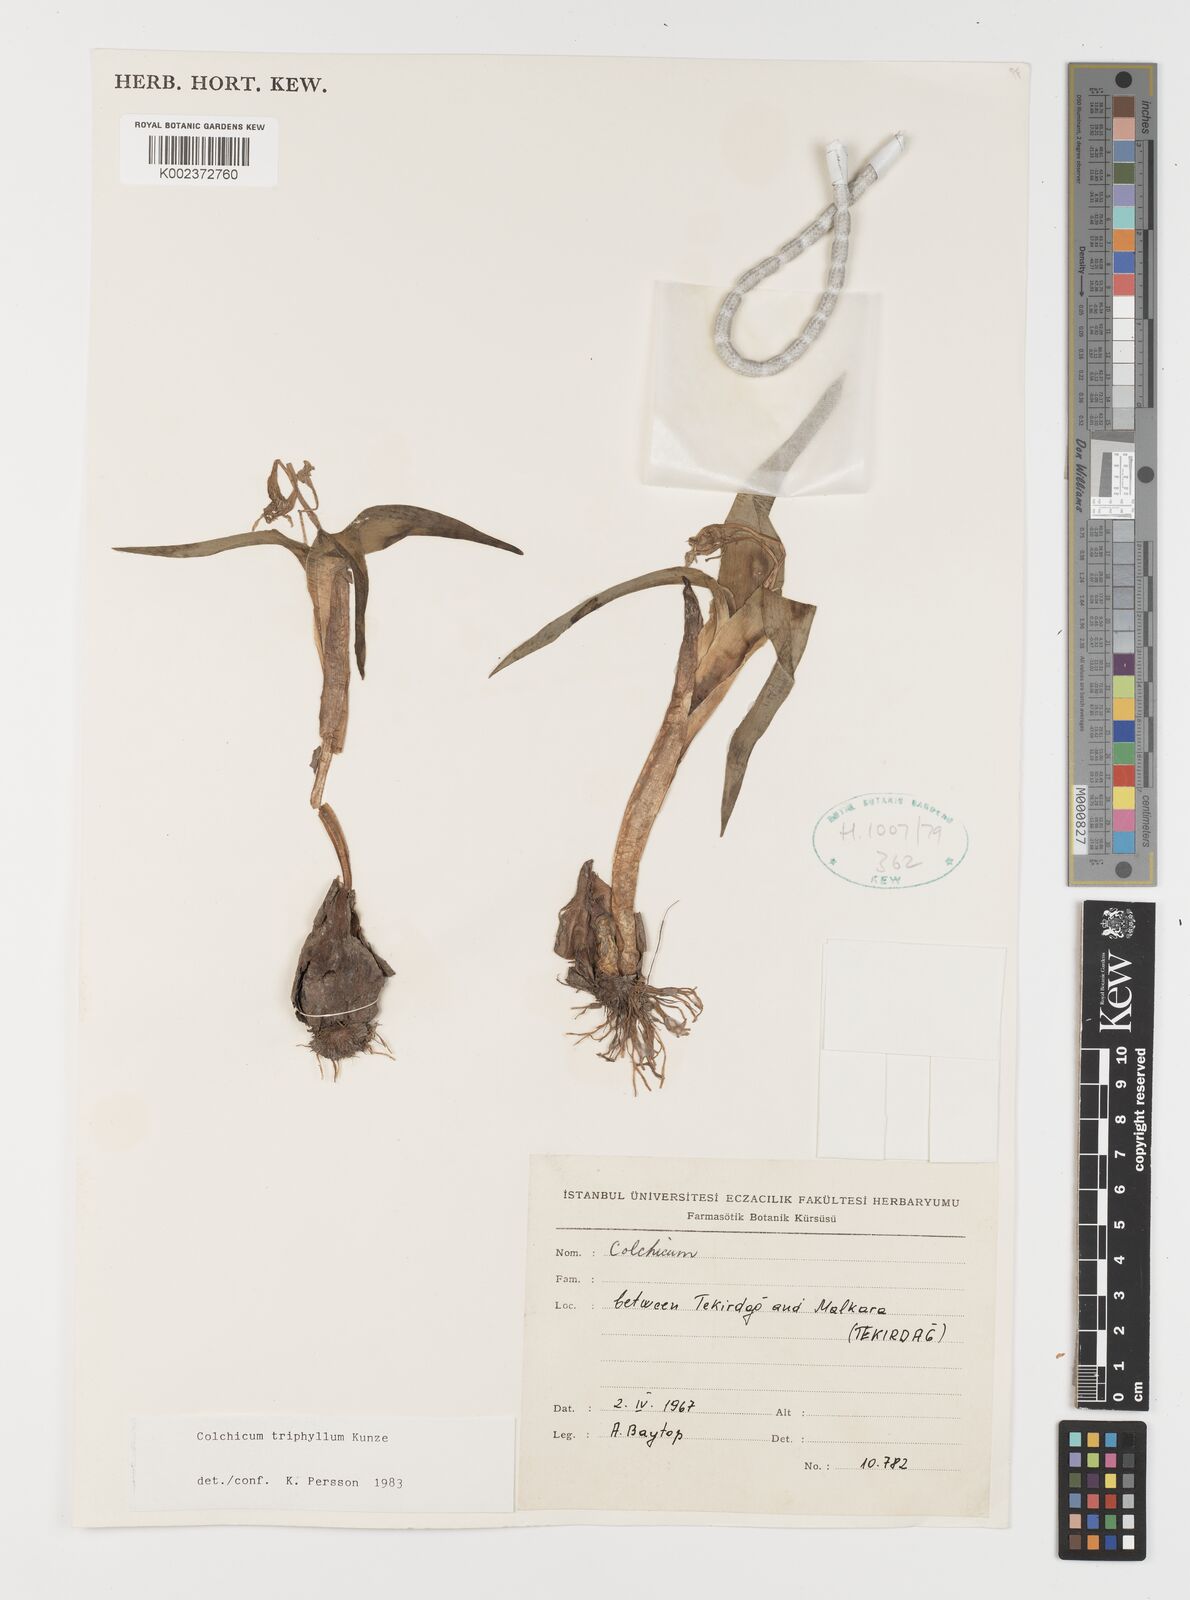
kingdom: Plantae
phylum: Tracheophyta
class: Liliopsida
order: Liliales
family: Colchicaceae
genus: Colchicum
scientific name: Colchicum triphyllum
